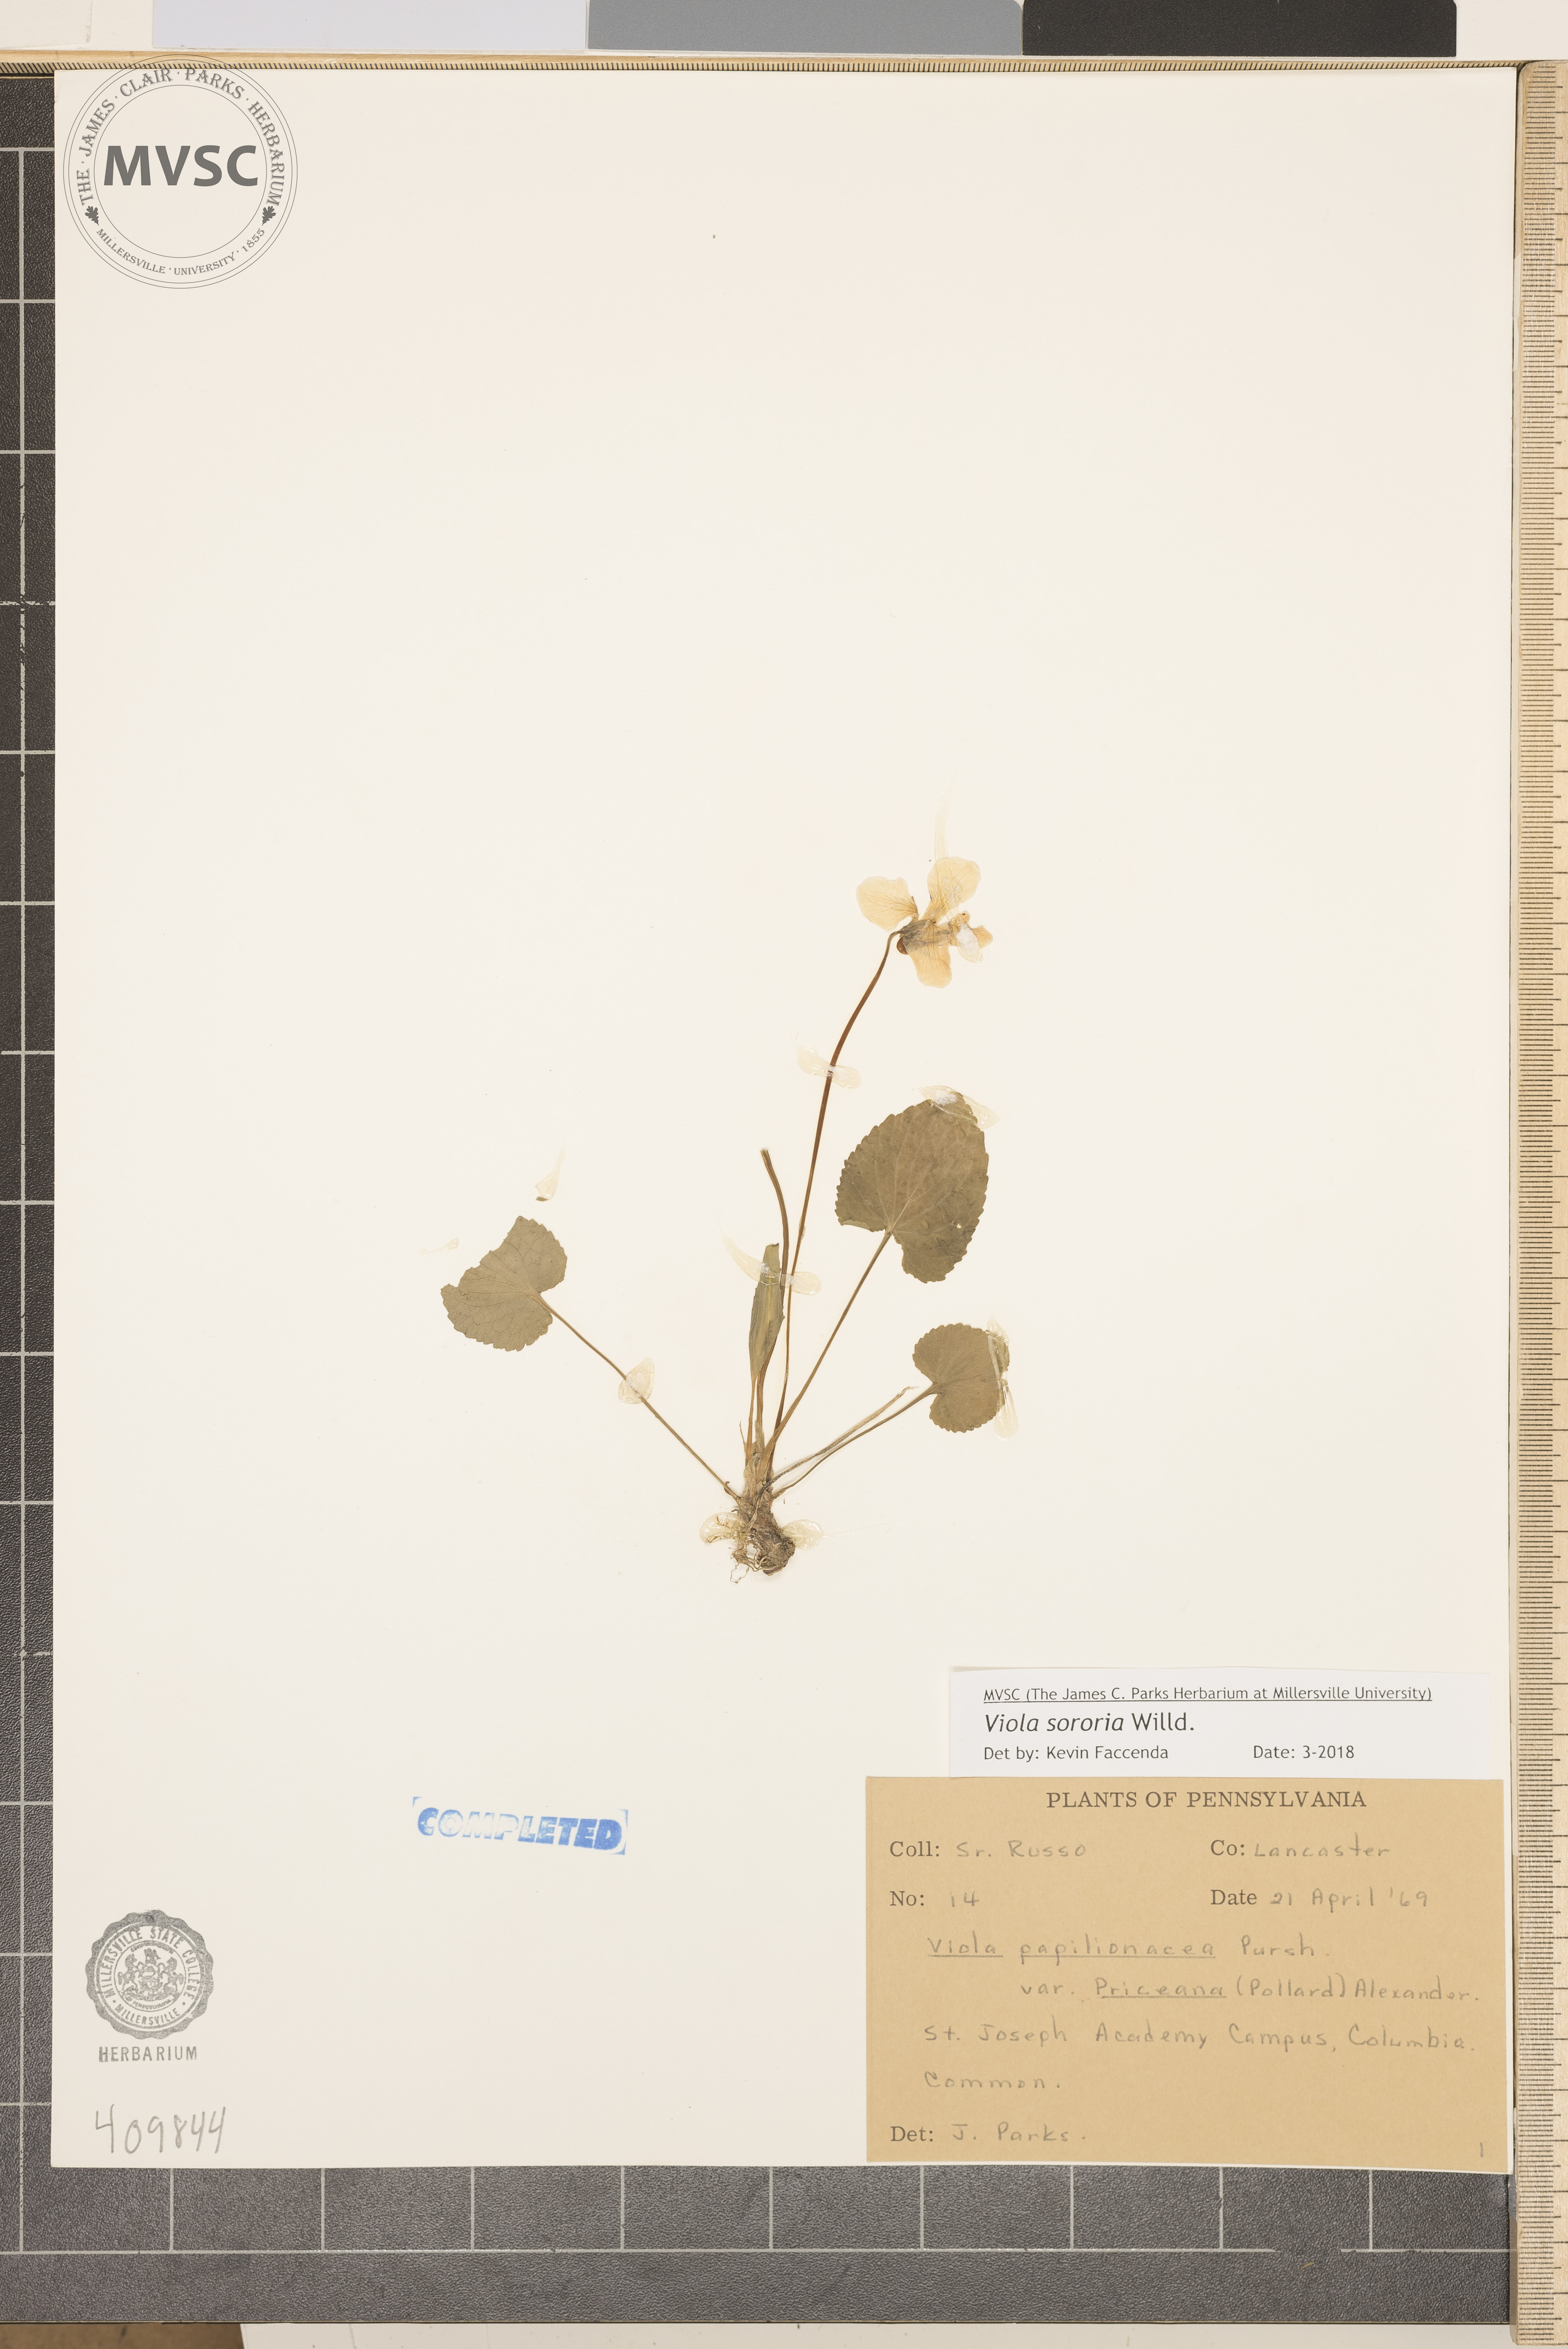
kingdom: Plantae
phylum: Tracheophyta
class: Magnoliopsida
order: Malpighiales
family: Violaceae
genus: Viola
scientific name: Viola sororia
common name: Dooryard violet
